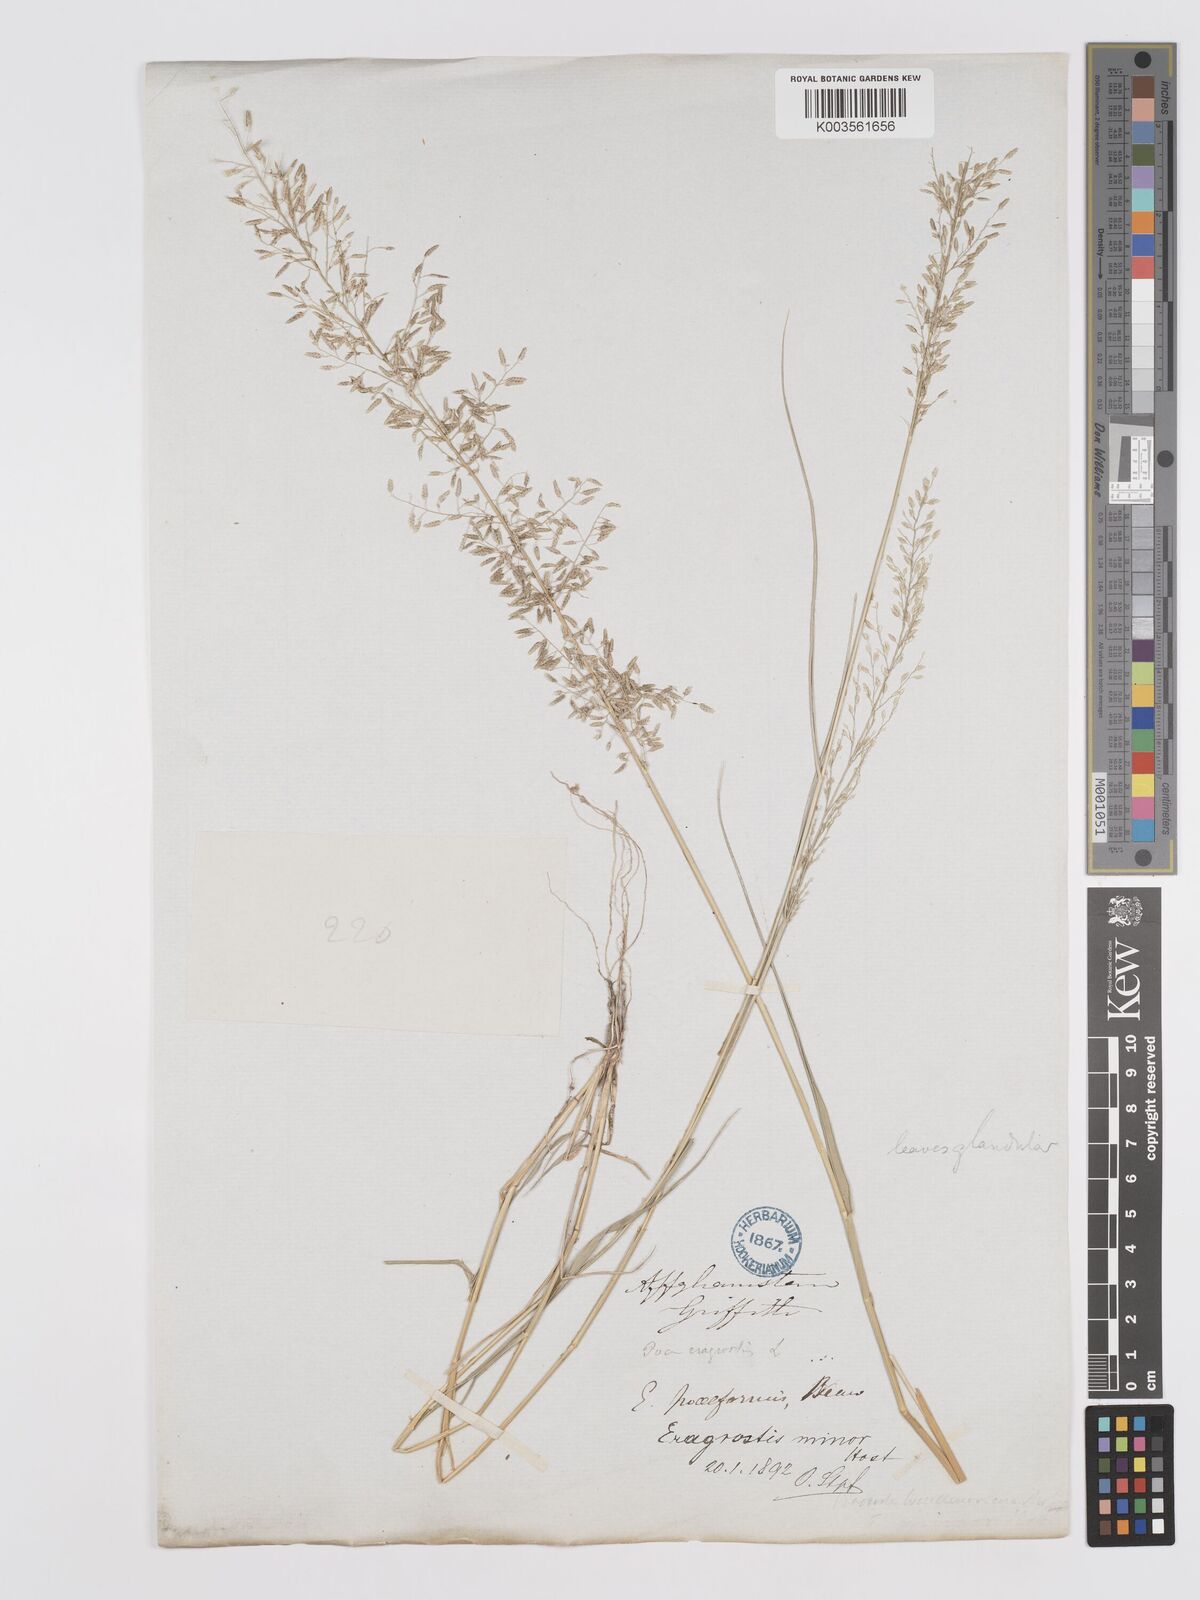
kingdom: Plantae
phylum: Tracheophyta
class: Liliopsida
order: Poales
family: Poaceae
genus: Eragrostis
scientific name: Eragrostis minor
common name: Small love-grass
